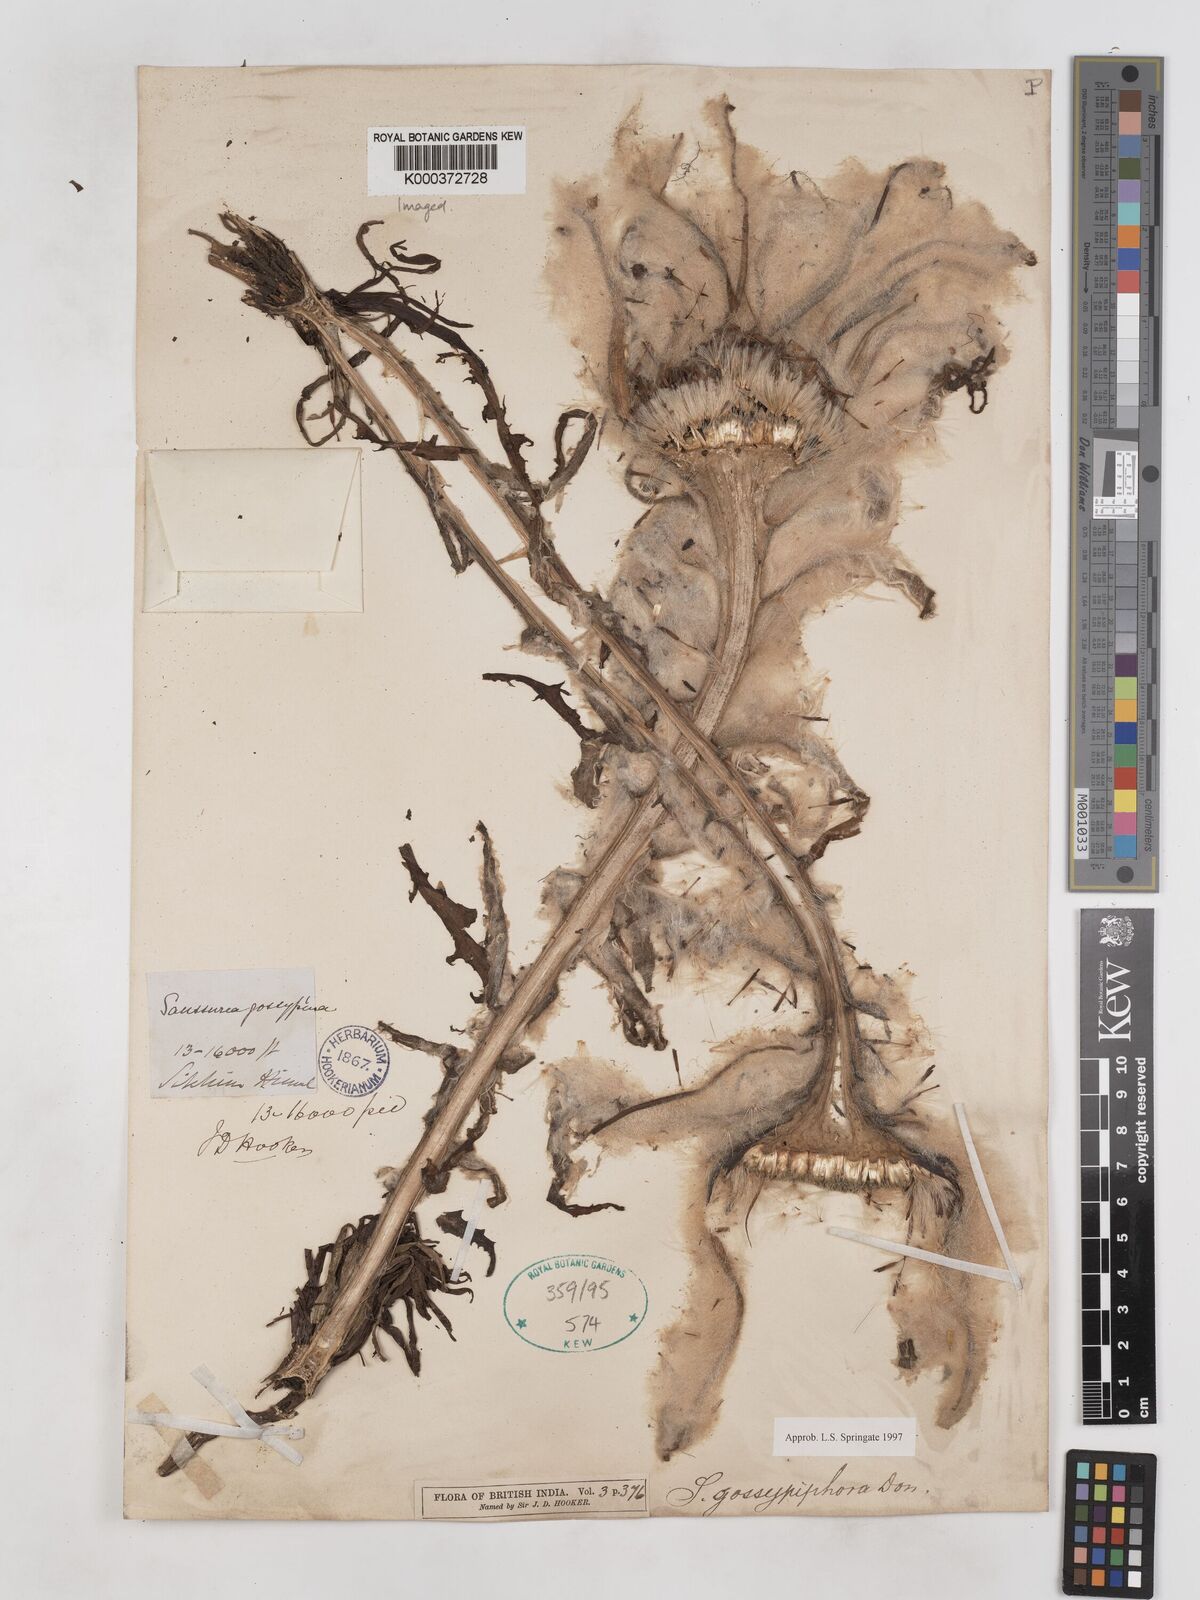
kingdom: Plantae
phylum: Tracheophyta
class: Magnoliopsida
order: Asterales
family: Asteraceae
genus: Saussurea
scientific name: Saussurea laniceps
